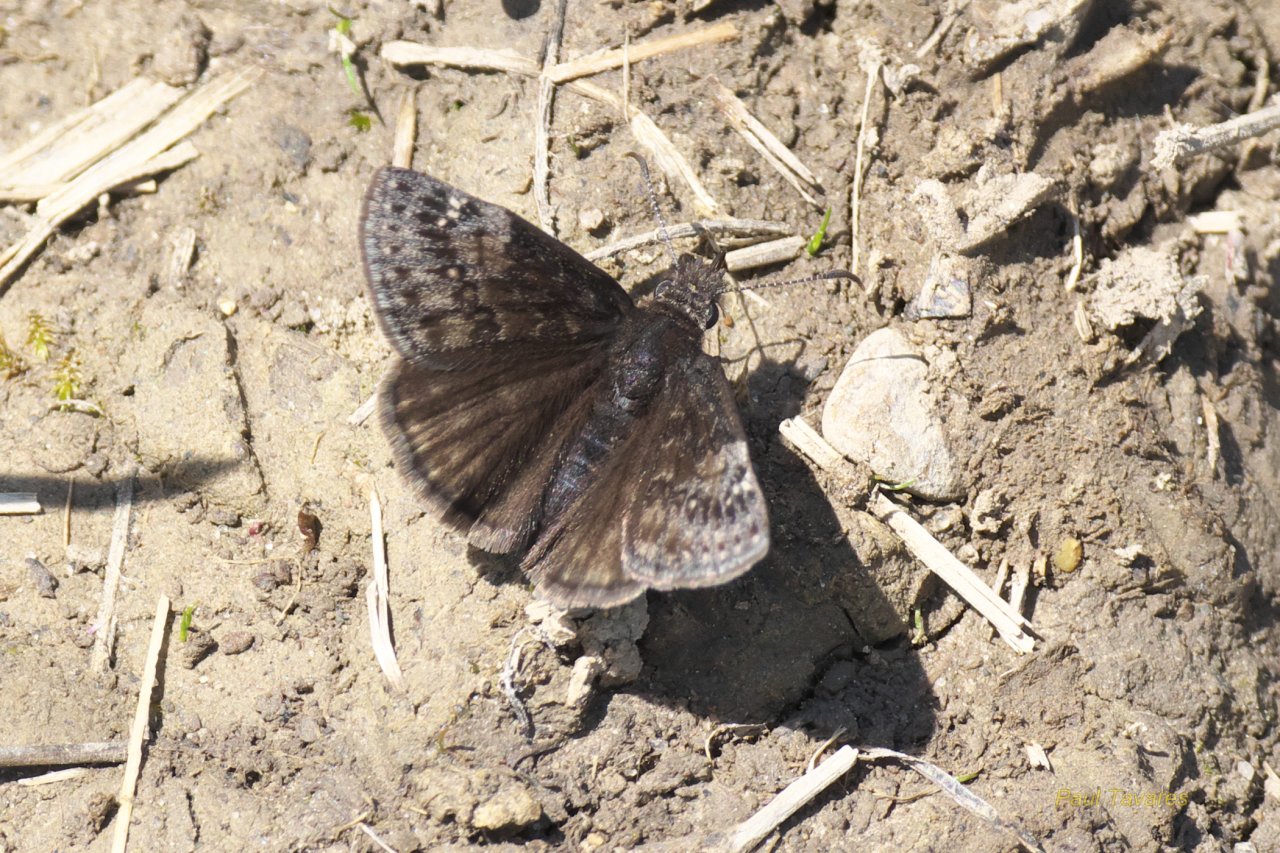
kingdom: Animalia
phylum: Arthropoda
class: Insecta
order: Lepidoptera
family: Hesperiidae
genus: Gesta
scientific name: Gesta
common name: Wild Indigo Duskywing
